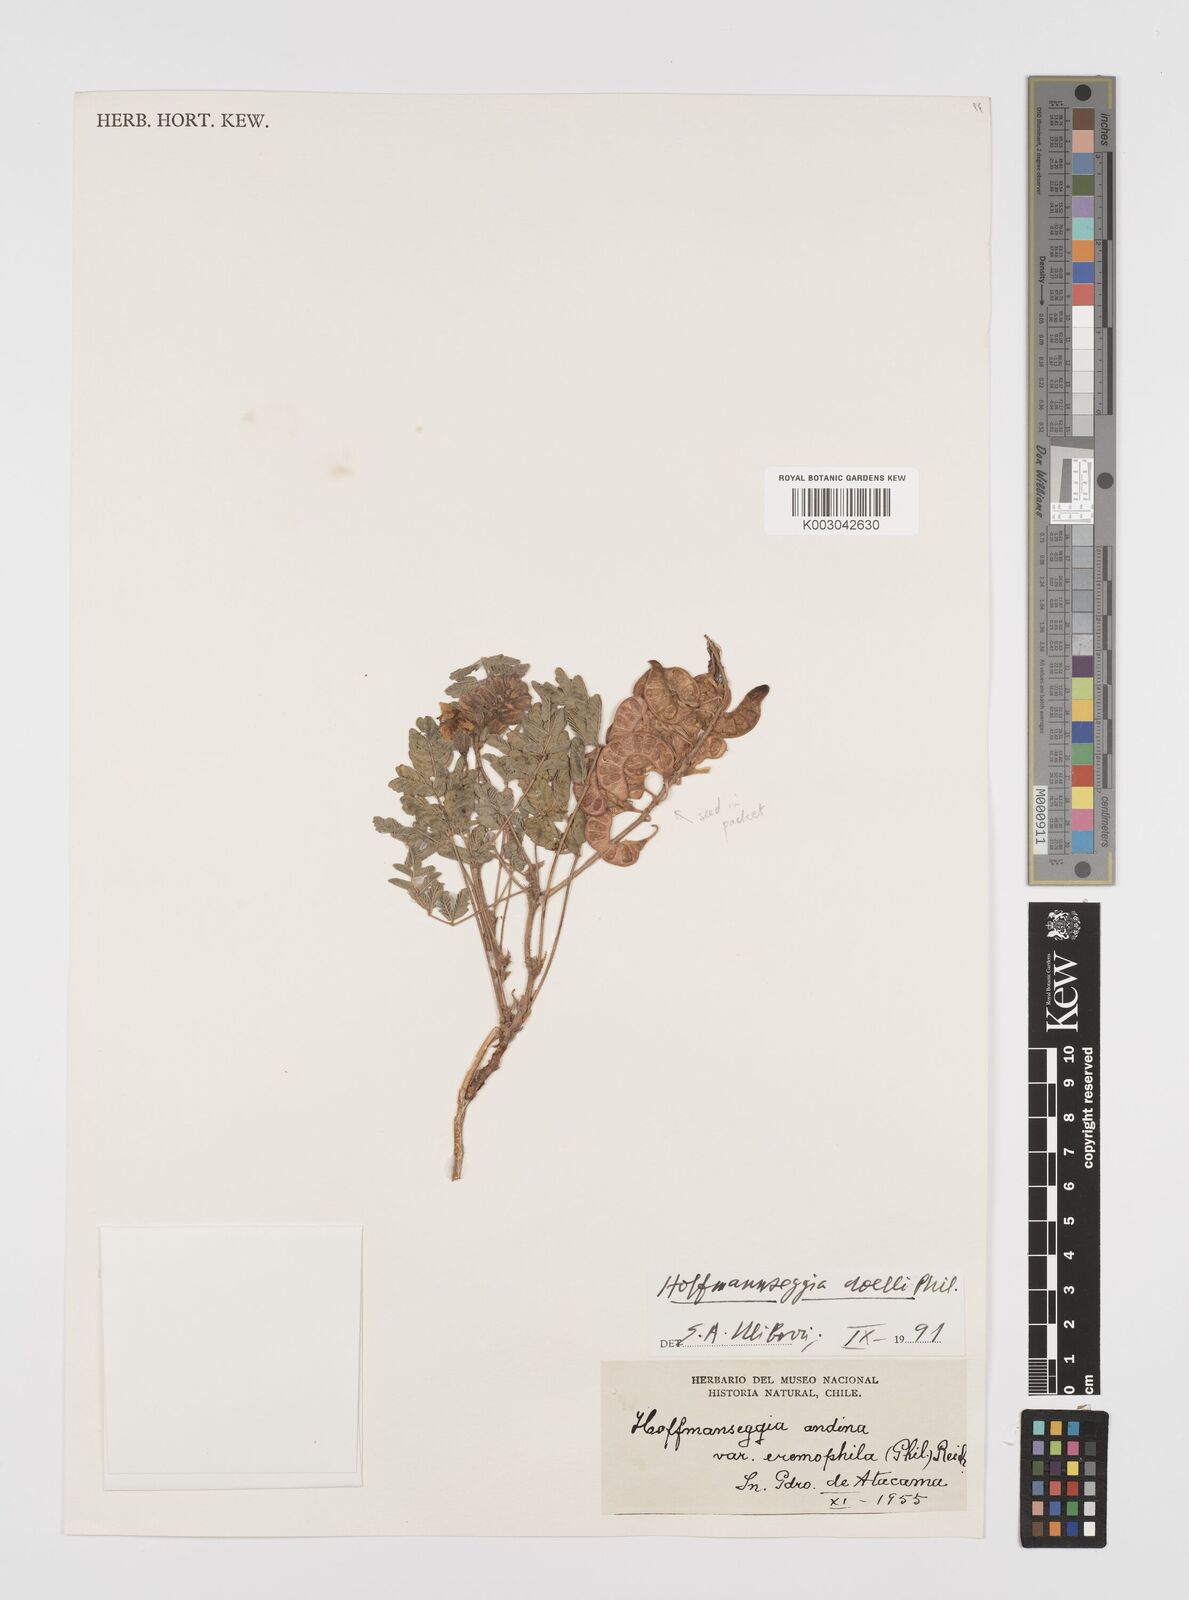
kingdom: Plantae
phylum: Tracheophyta
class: Magnoliopsida
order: Fabales
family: Fabaceae
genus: Hoffmannseggia
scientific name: Hoffmannseggia doellii
